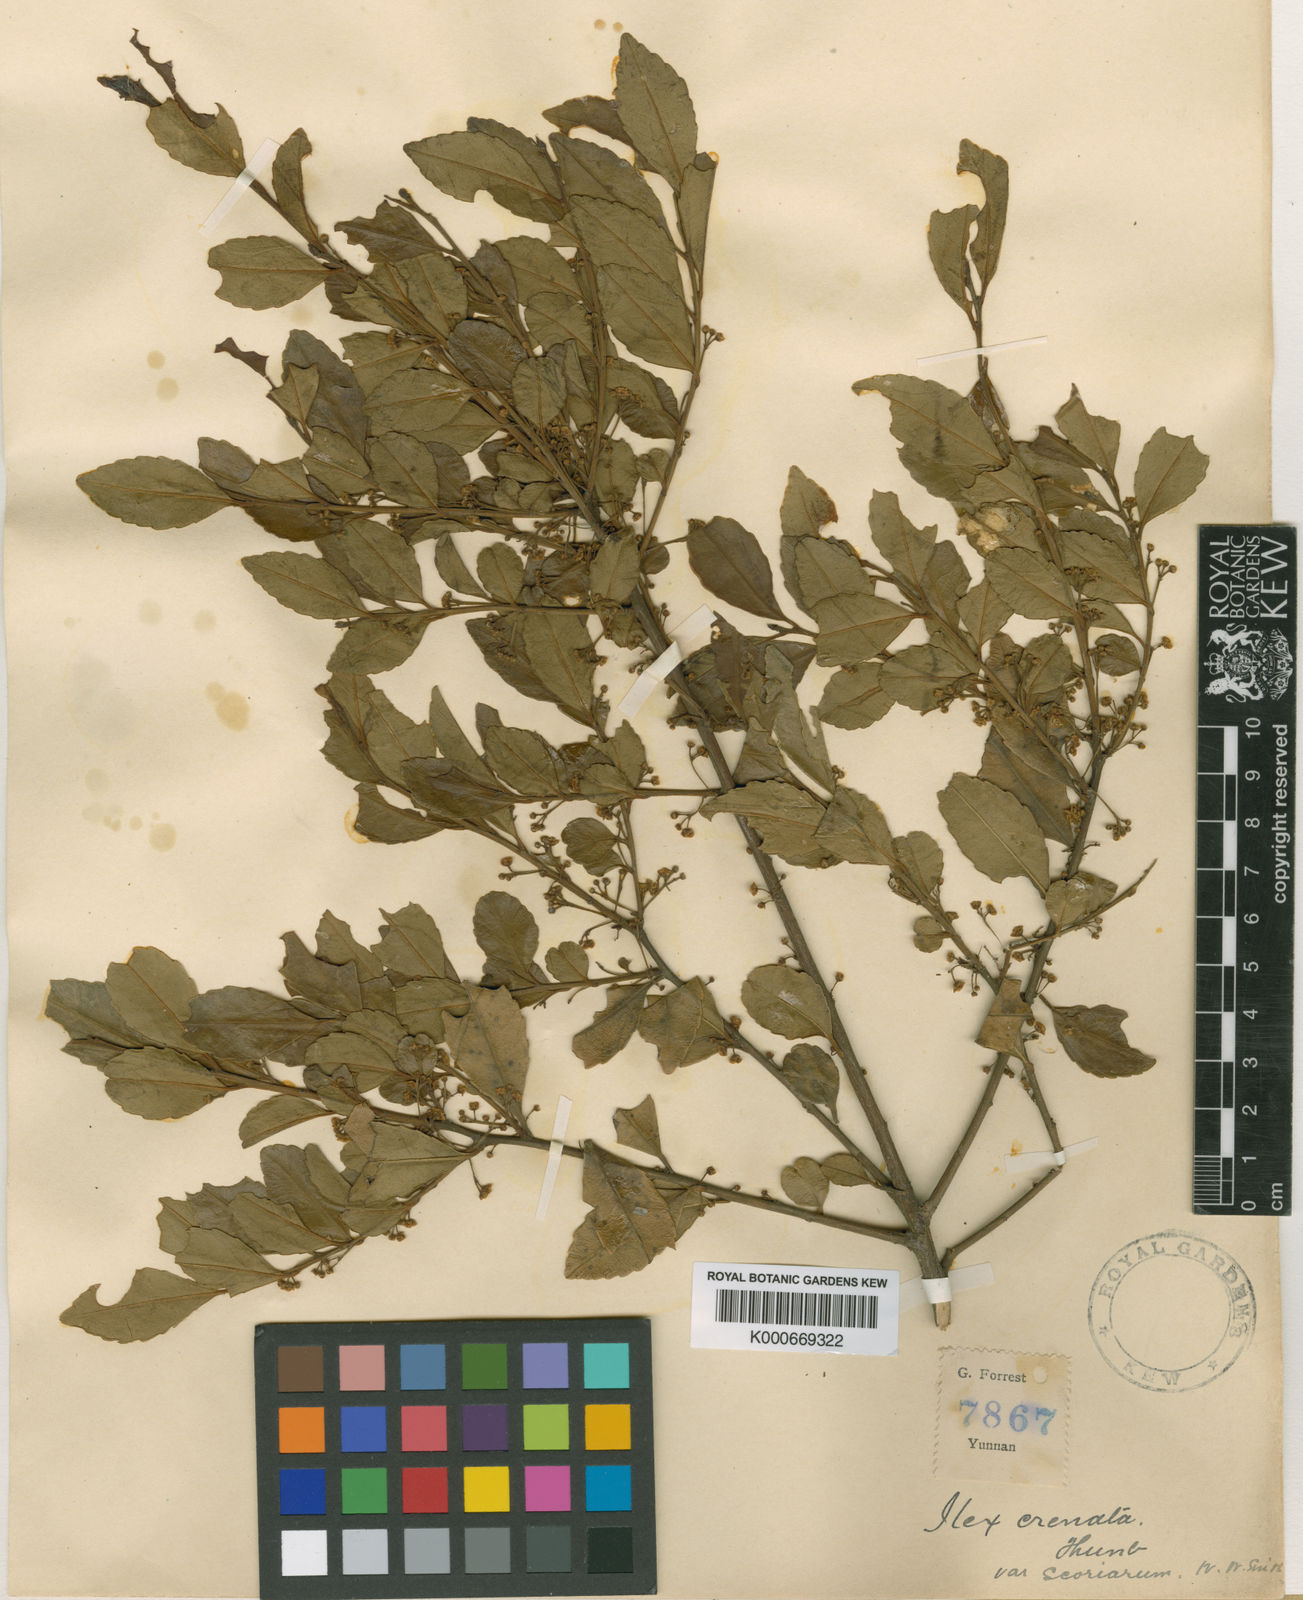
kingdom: Plantae
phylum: Tracheophyta
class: Magnoliopsida
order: Aquifoliales
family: Aquifoliaceae
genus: Ilex
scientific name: Ilex szechwanensis
